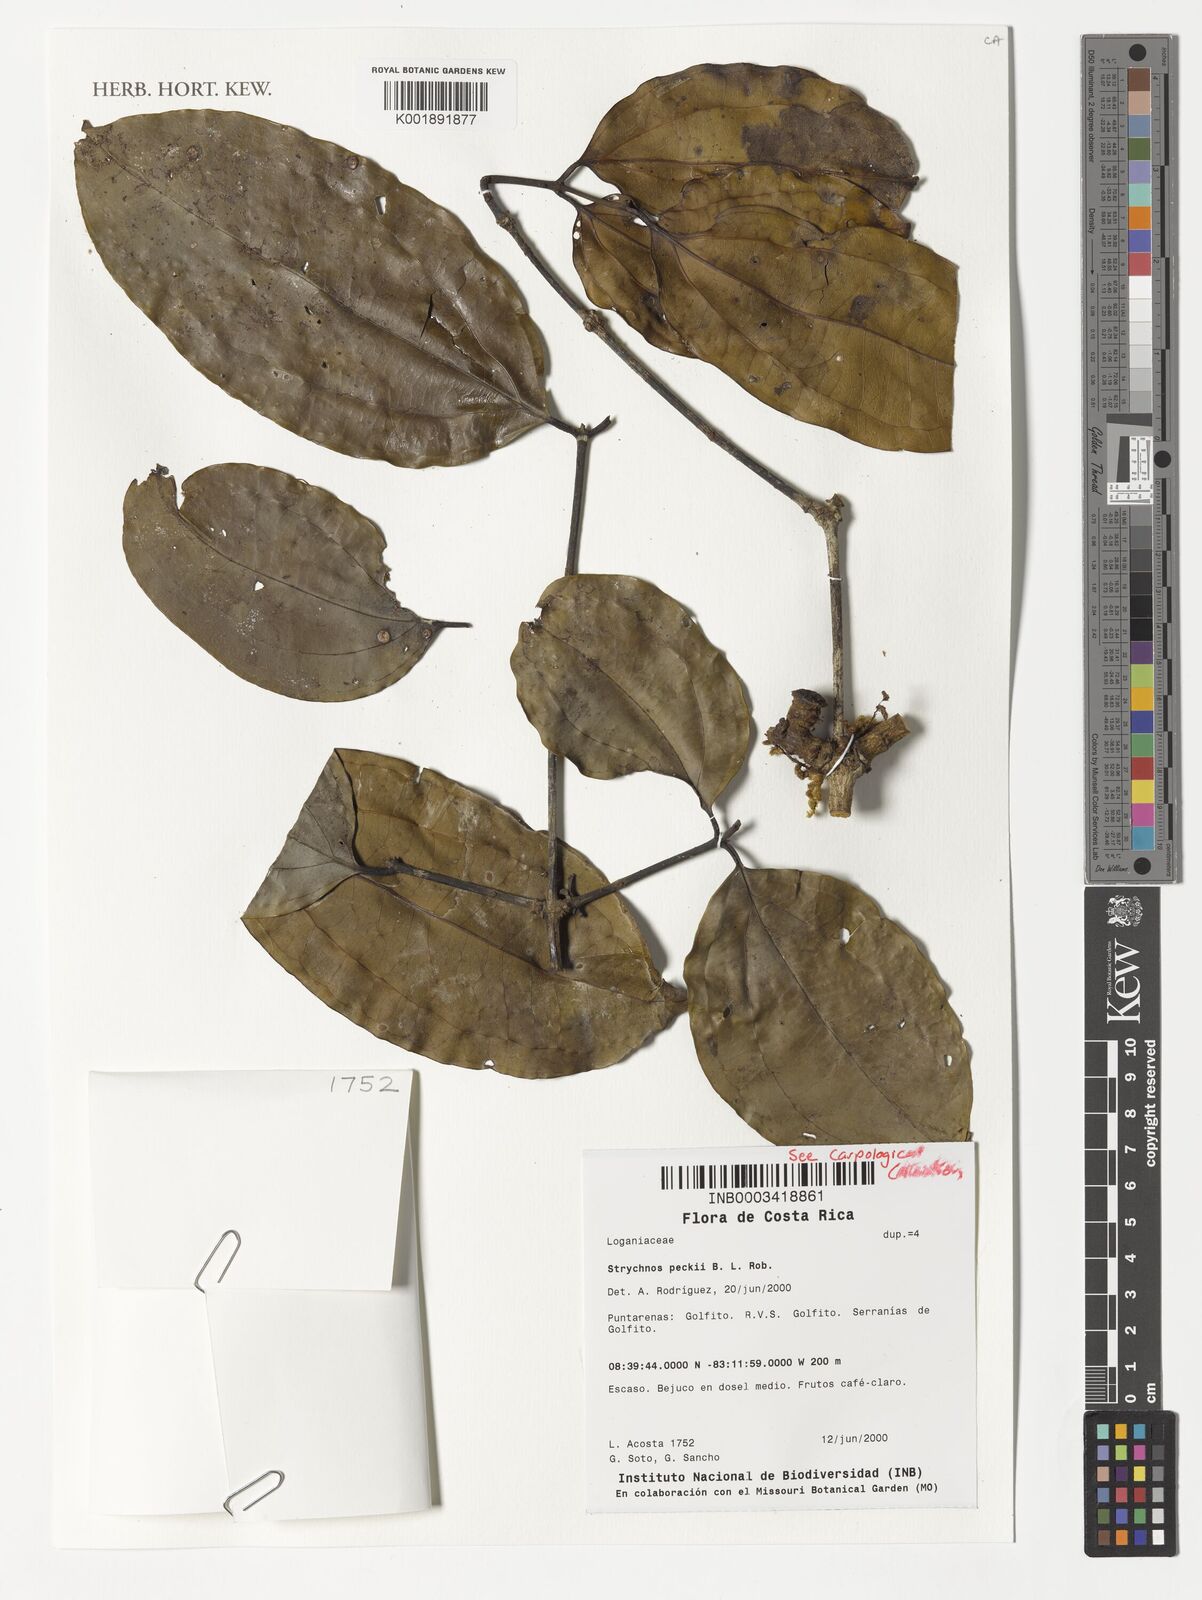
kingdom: Plantae
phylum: Tracheophyta
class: Magnoliopsida
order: Gentianales
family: Loganiaceae
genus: Strychnos
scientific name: Strychnos peckii
